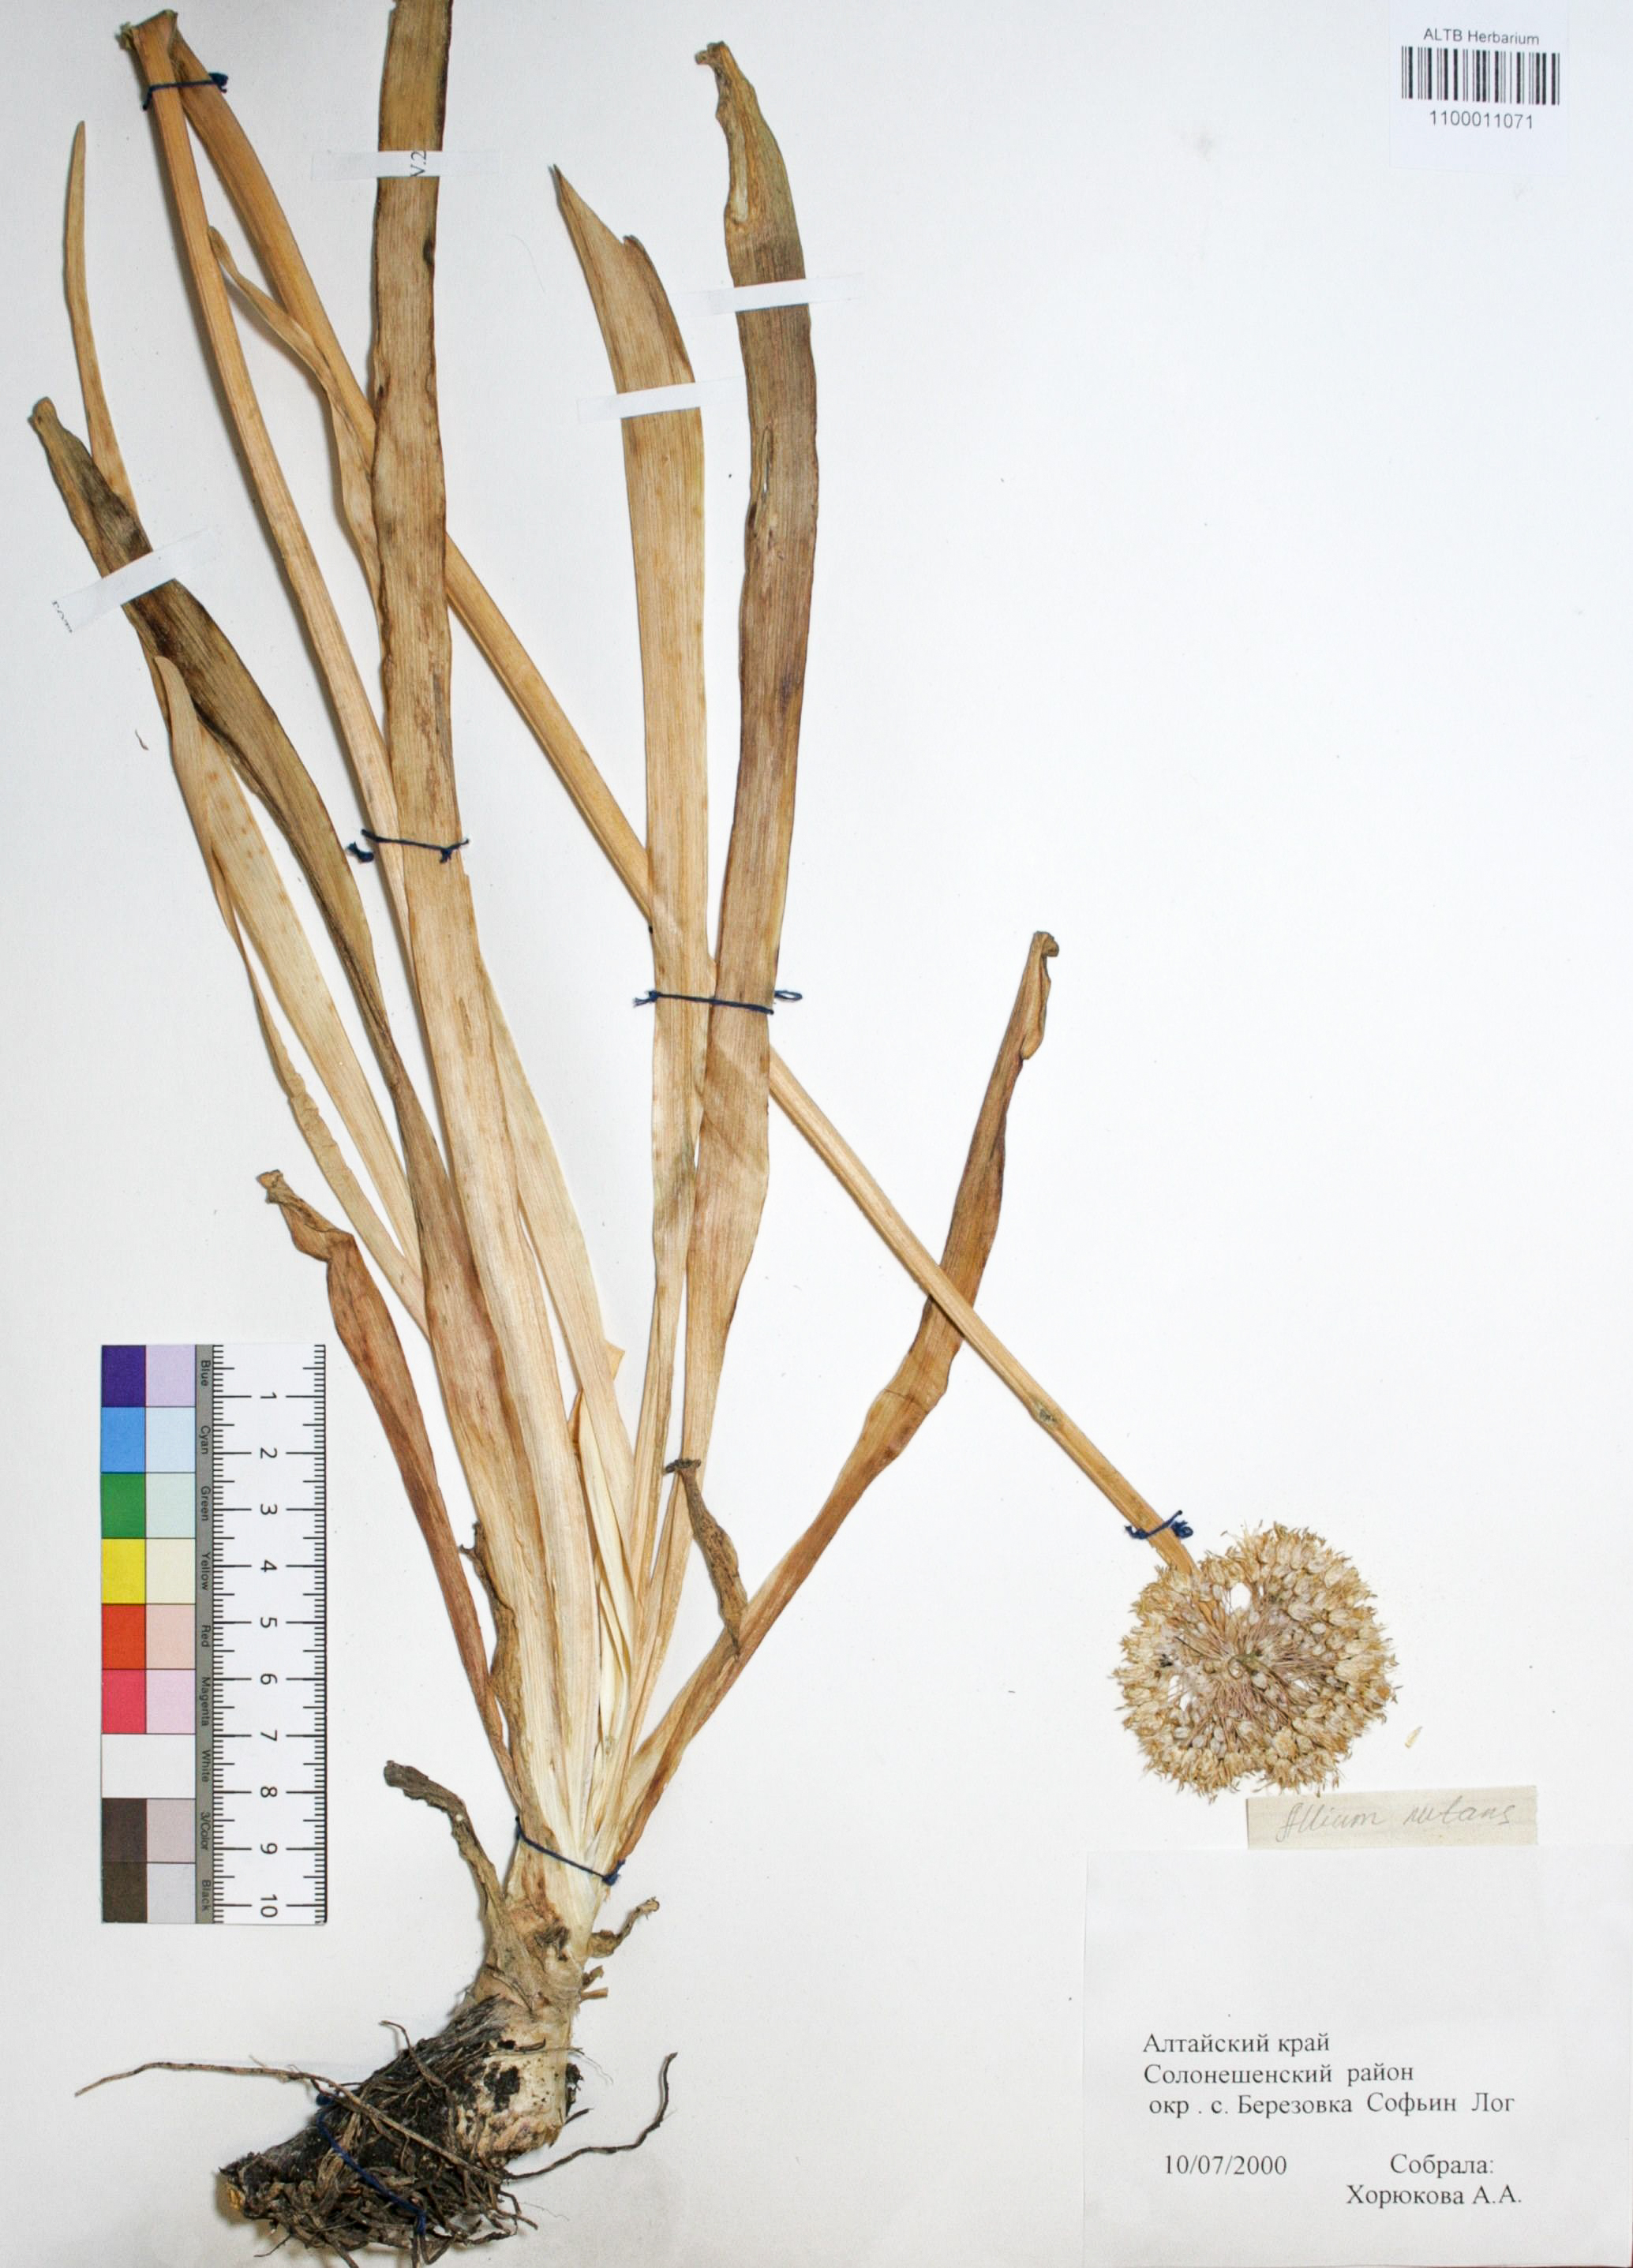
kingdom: Plantae
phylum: Tracheophyta
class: Liliopsida
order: Asparagales
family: Amaryllidaceae
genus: Allium
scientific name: Allium nutans
